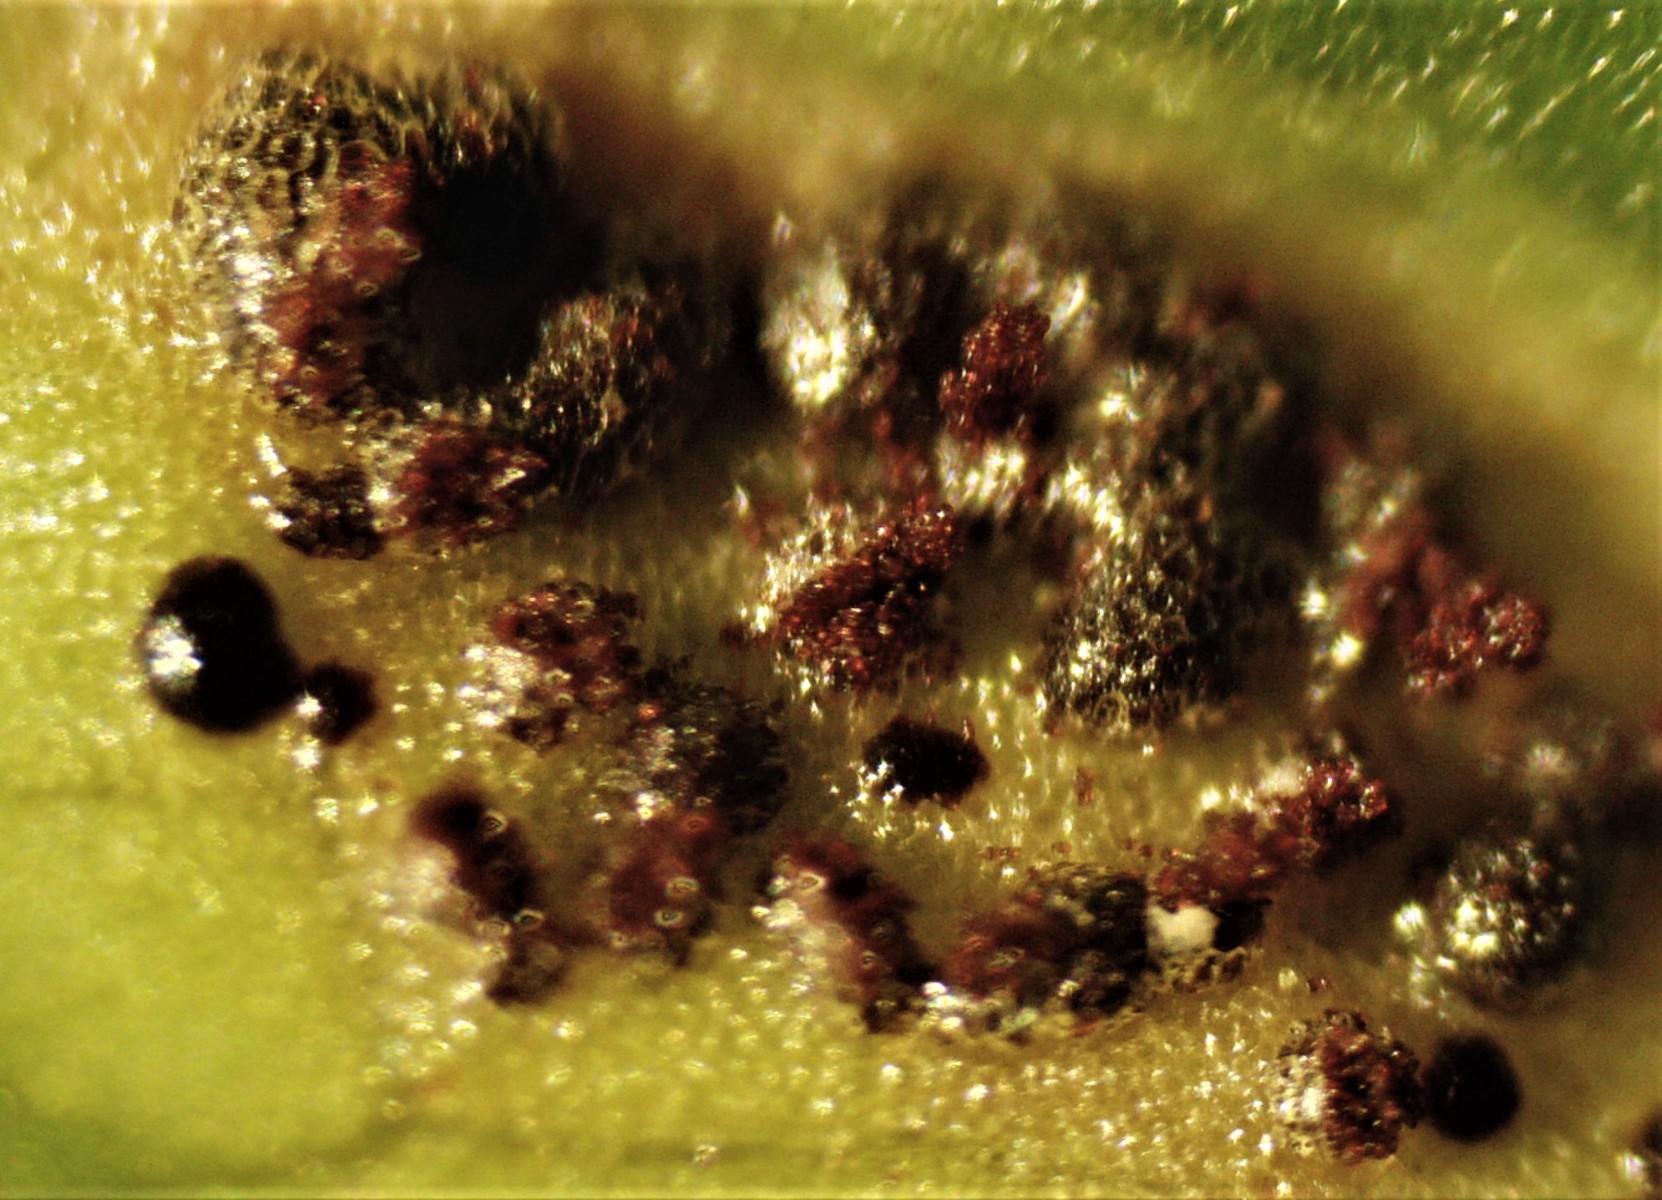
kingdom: Fungi
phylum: Basidiomycota
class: Pucciniomycetes
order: Pucciniales
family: Pucciniaceae
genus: Puccinia
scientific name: Puccinia
